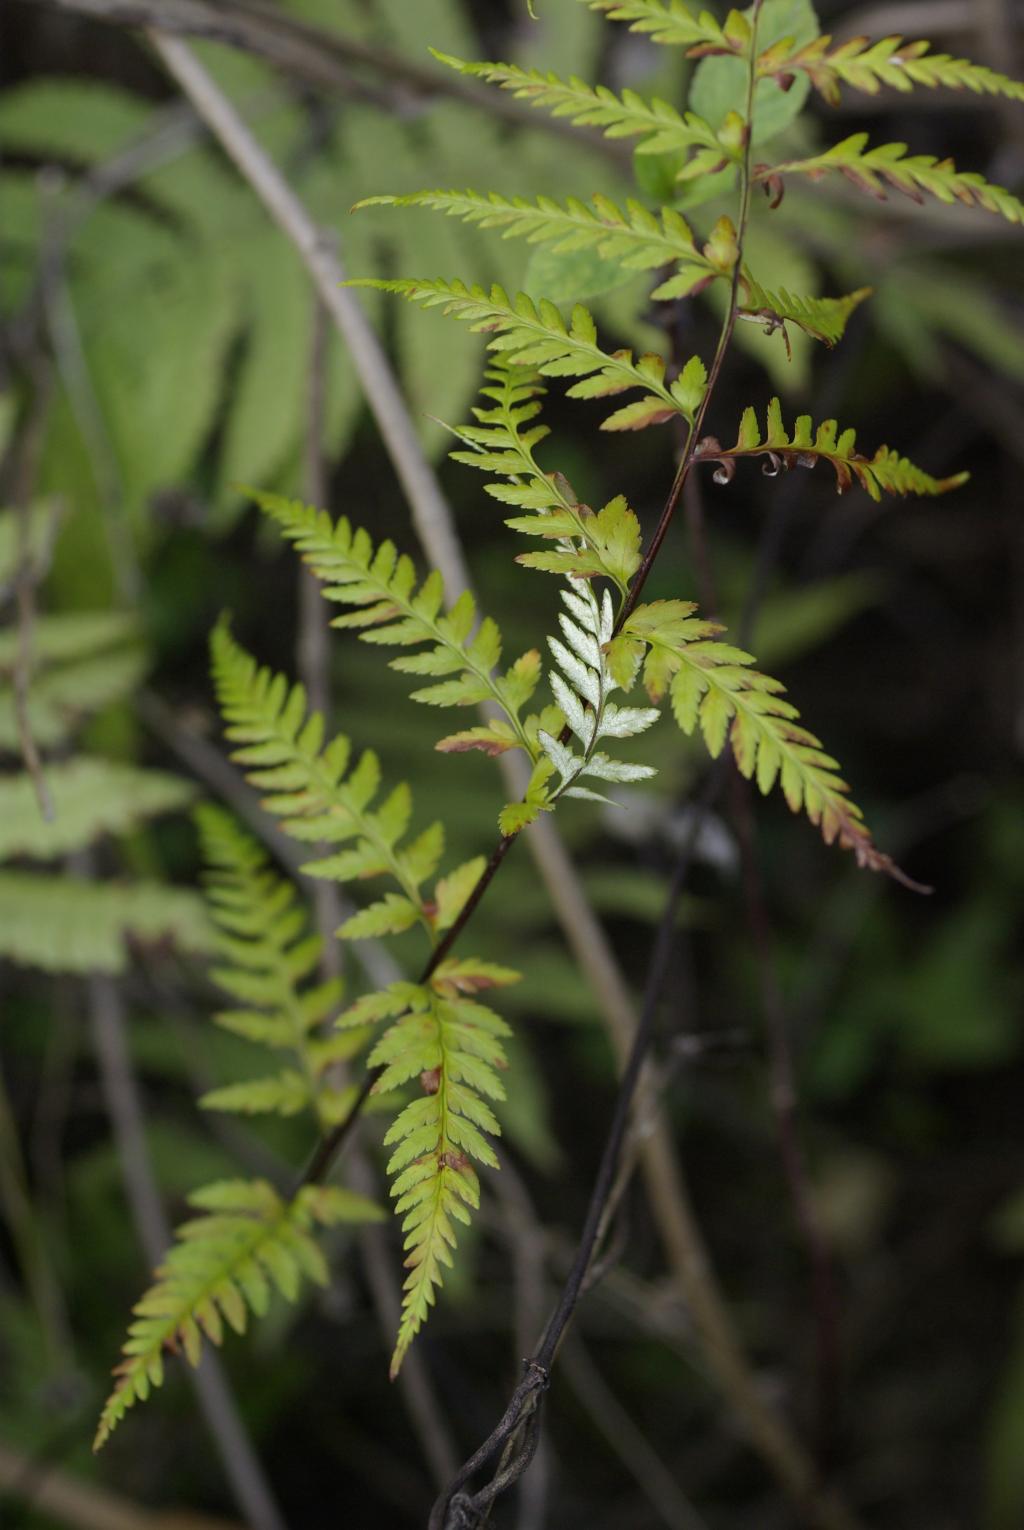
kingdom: Plantae
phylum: Tracheophyta
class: Polypodiopsida
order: Polypodiales
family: Pteridaceae
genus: Pityrogramma
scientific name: Pityrogramma calomelanos
